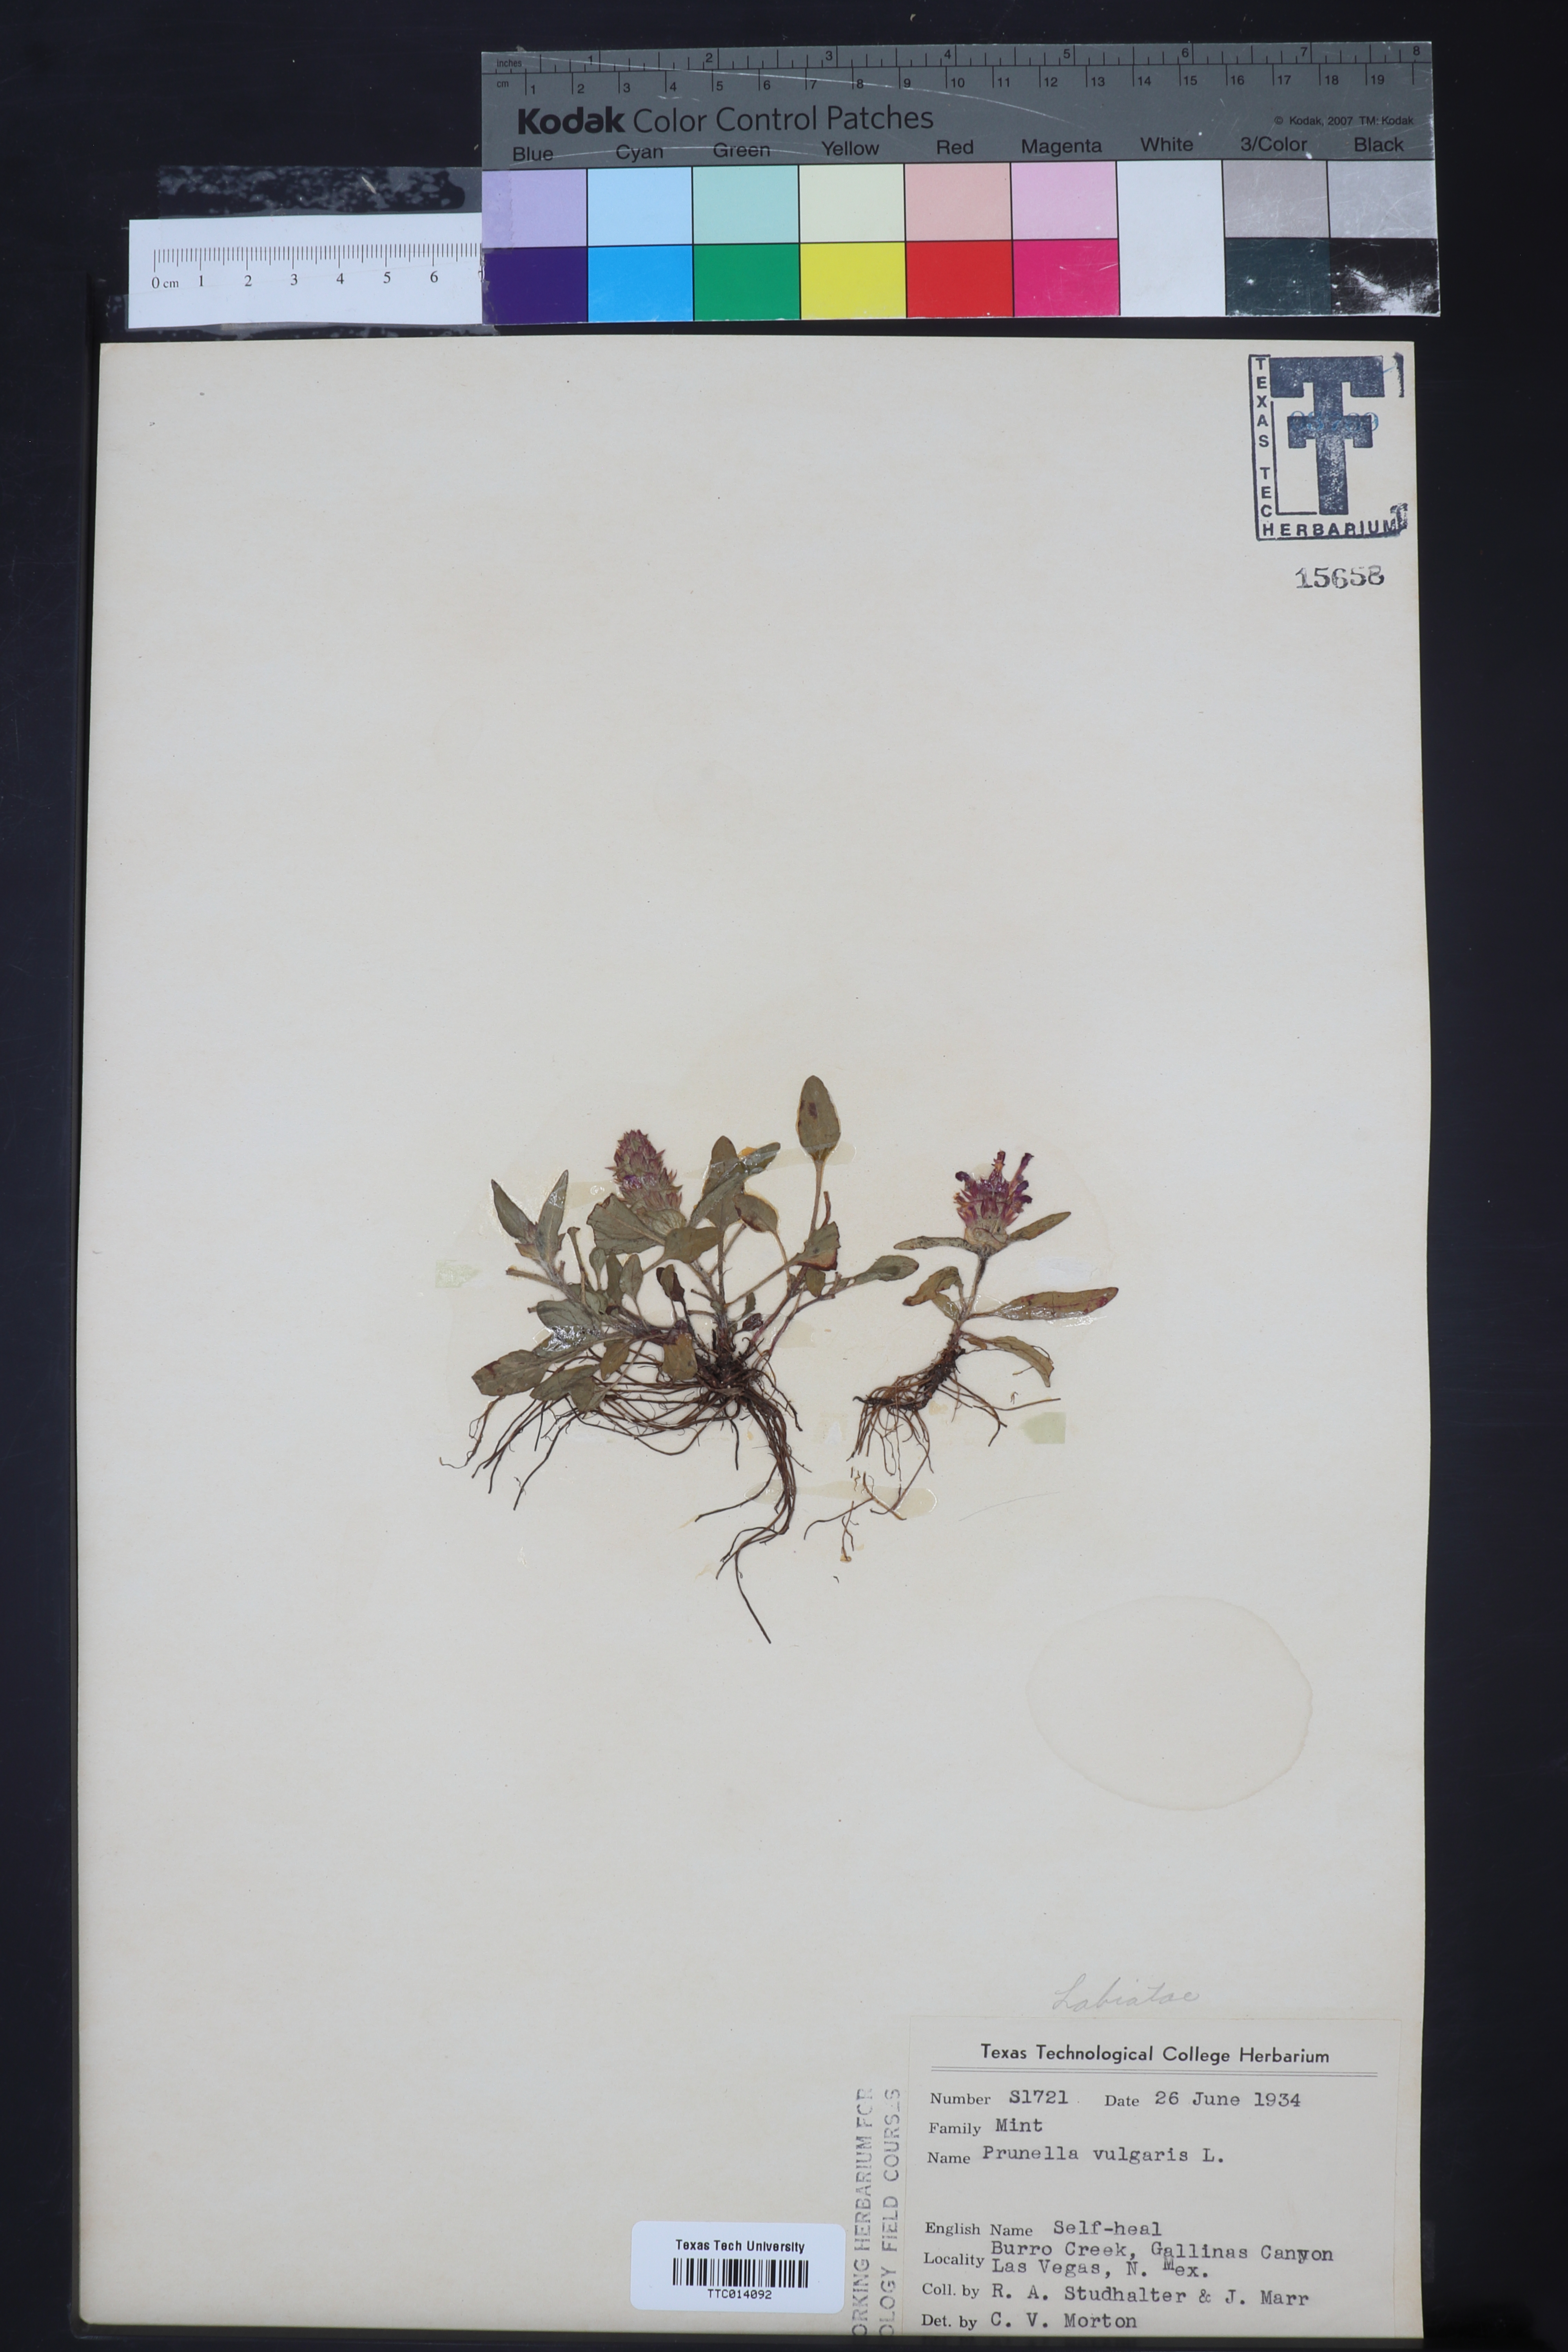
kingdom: Plantae
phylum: Tracheophyta
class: Magnoliopsida
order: Lamiales
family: Lamiaceae
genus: Prunella
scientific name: Prunella vulgaris
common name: Heal-all
